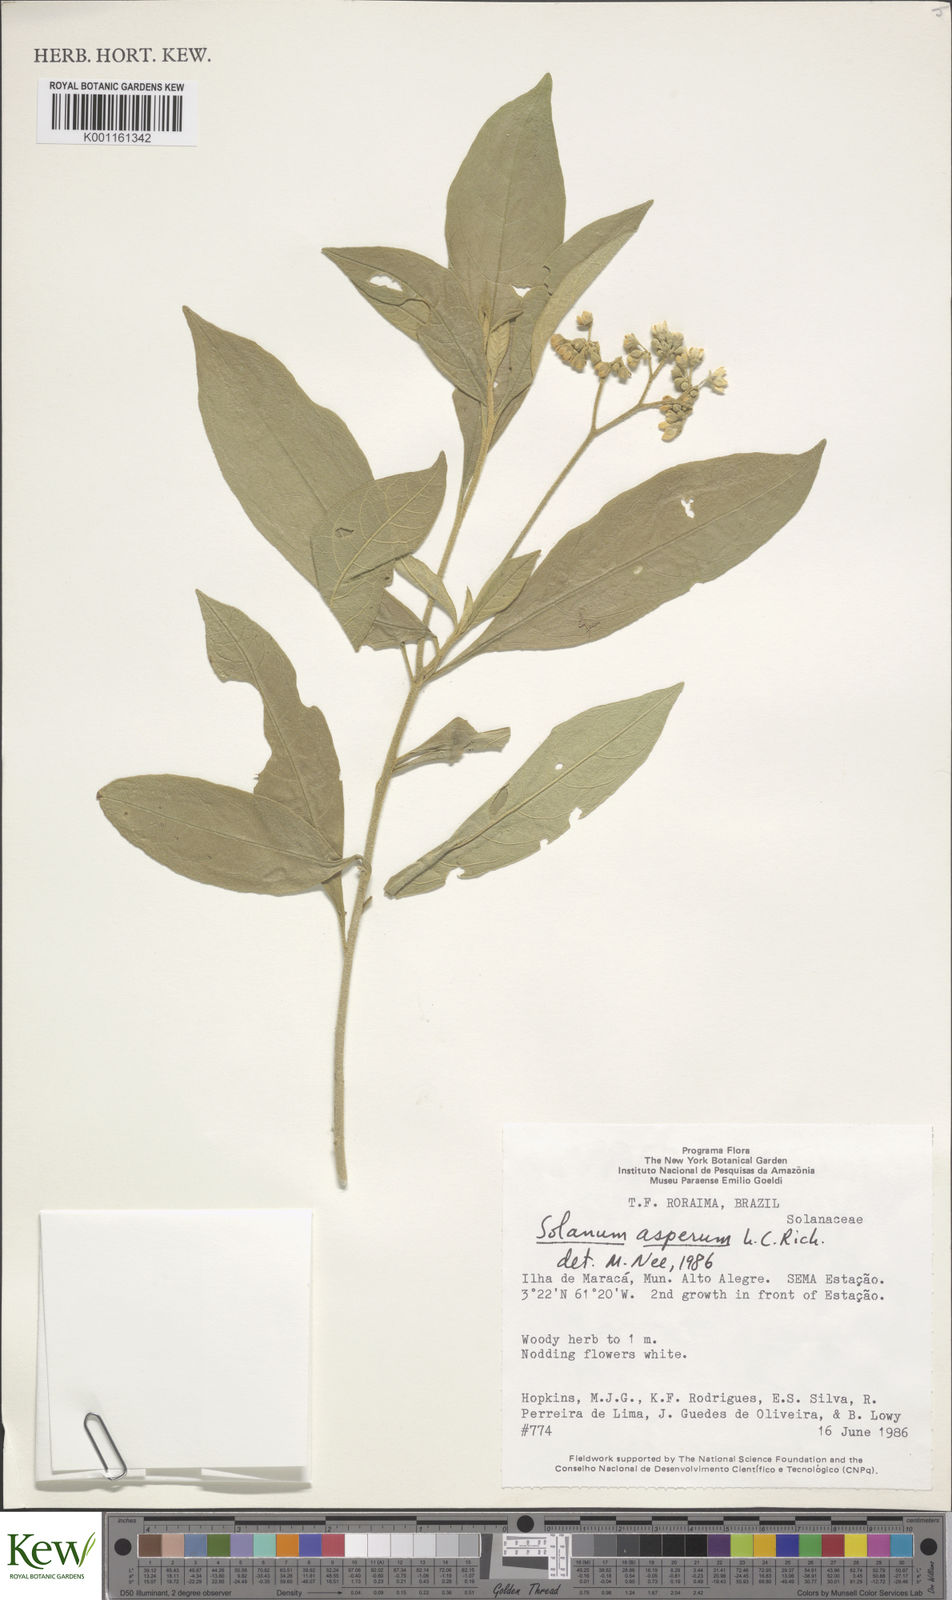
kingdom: Plantae
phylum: Tracheophyta
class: Magnoliopsida
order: Solanales
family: Solanaceae
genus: Solanum
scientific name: Solanum asperum
